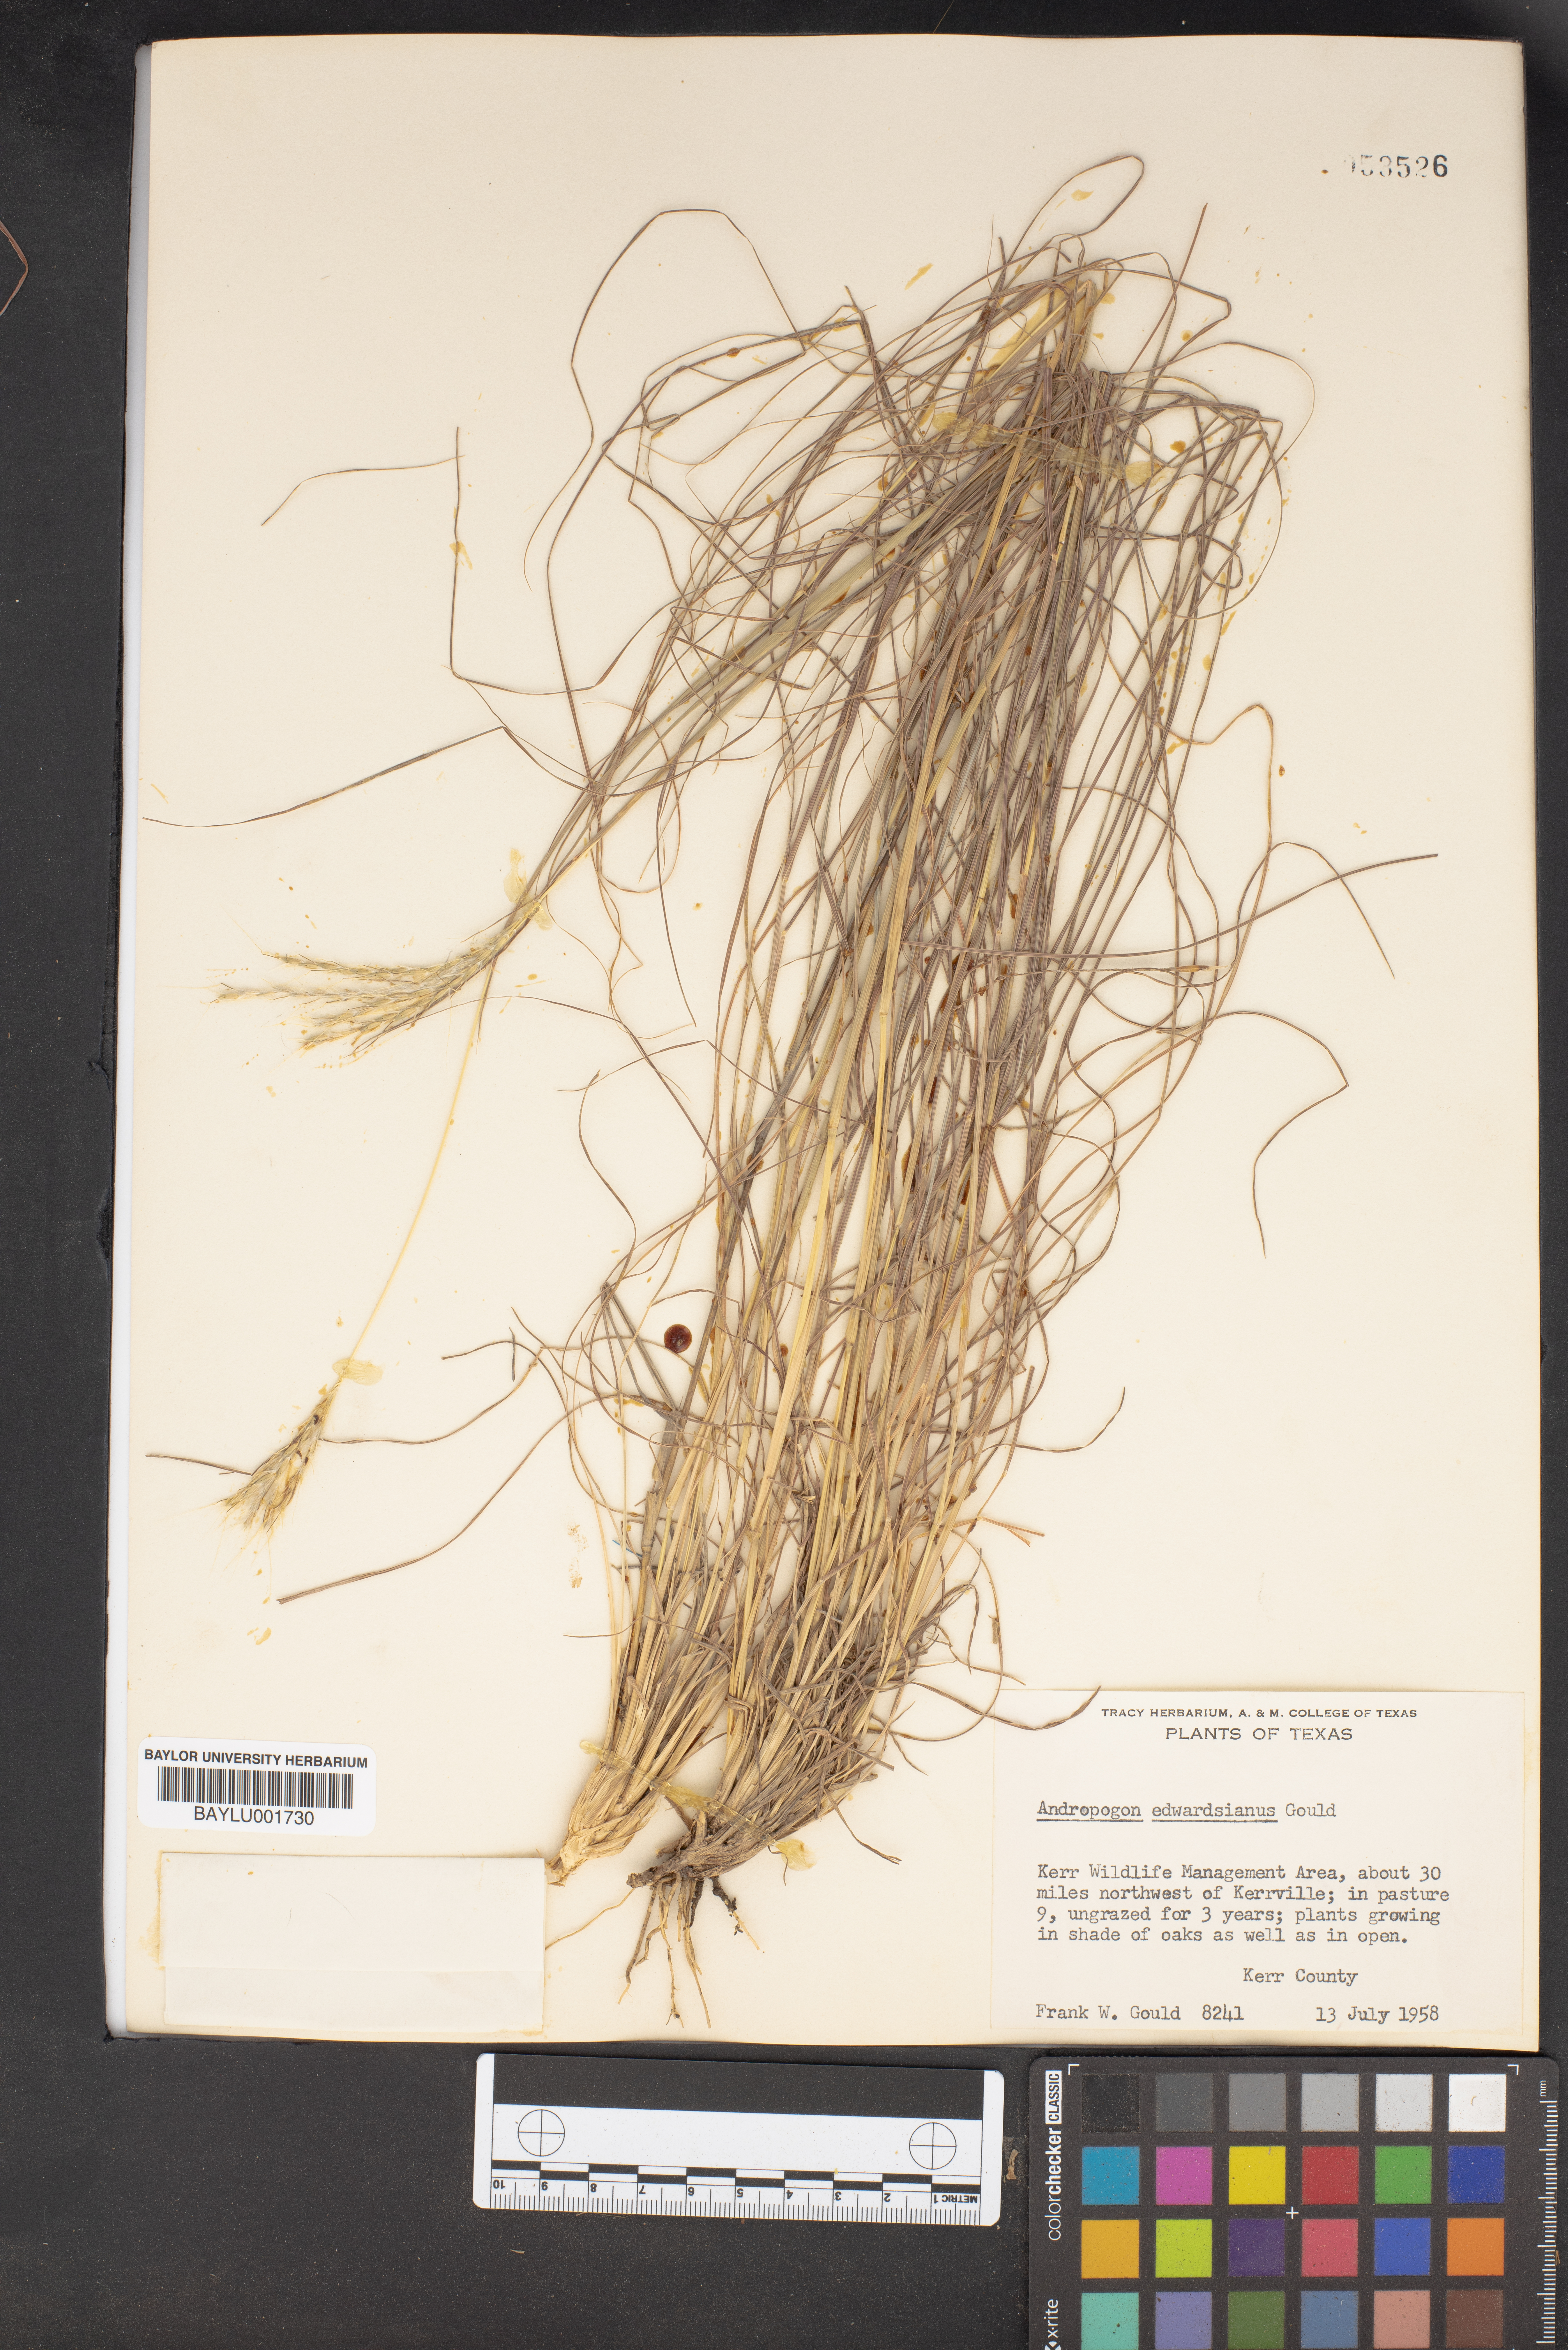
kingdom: Plantae
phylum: Tracheophyta
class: Liliopsida
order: Poales
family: Poaceae
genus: Bothriochloa
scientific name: Bothriochloa edwardsiana
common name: Merrill's bluestem
